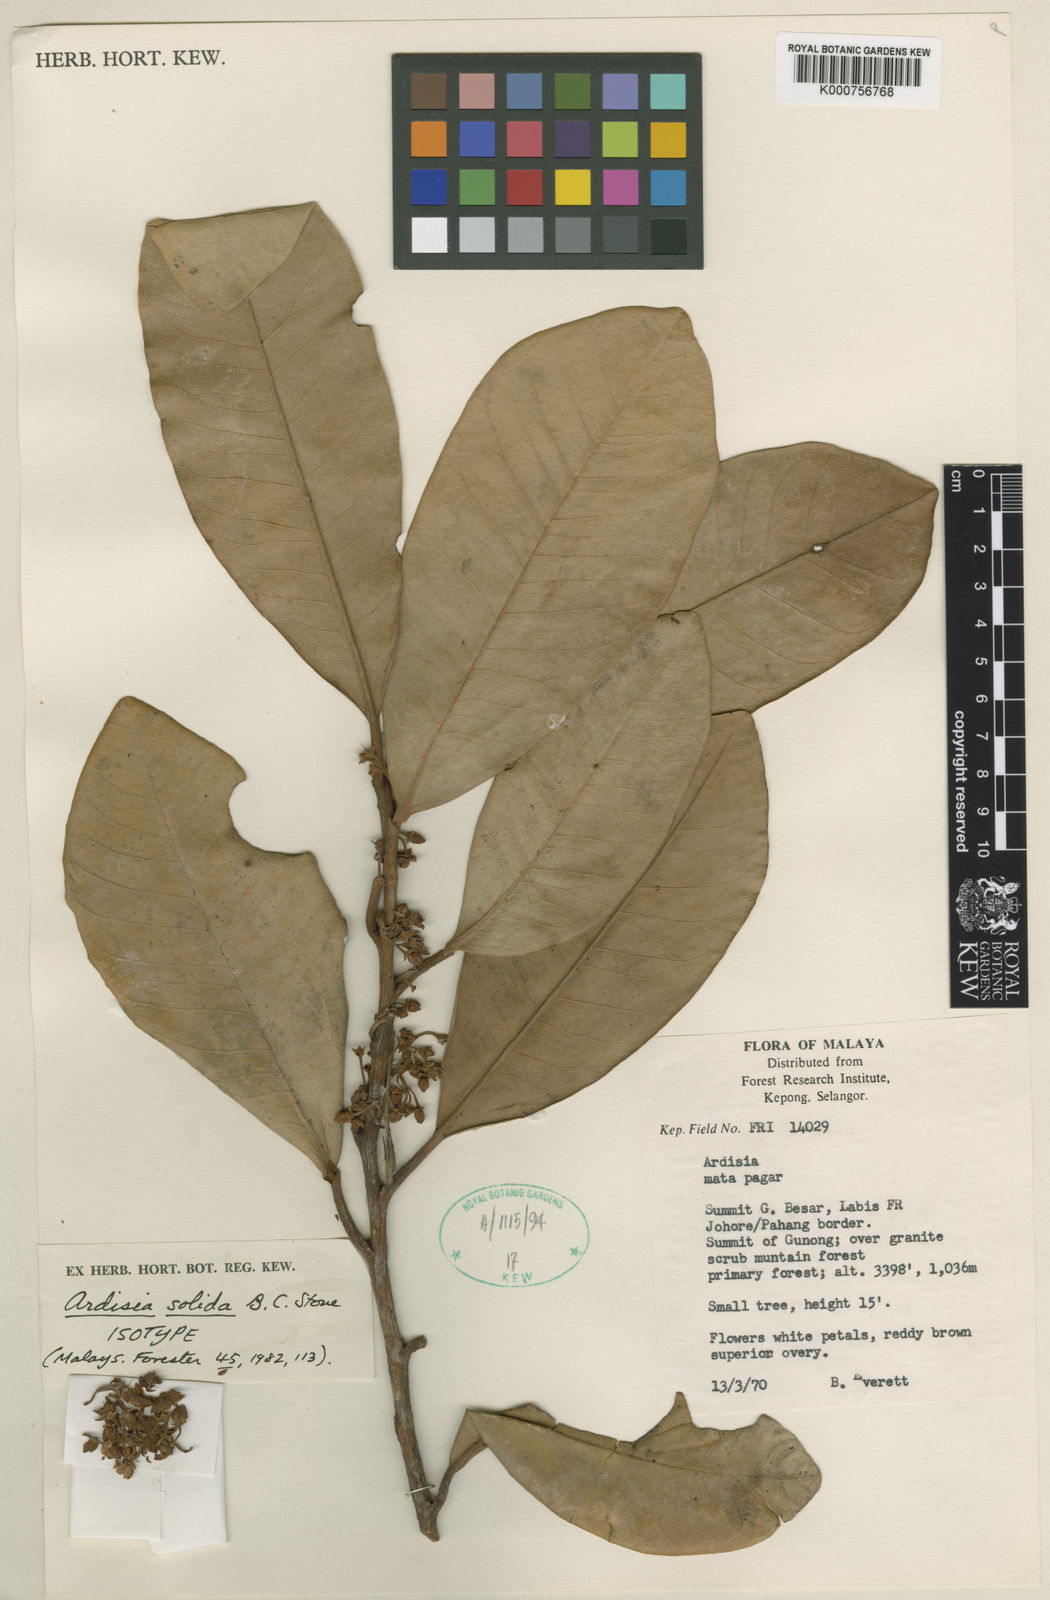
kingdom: Plantae
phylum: Tracheophyta
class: Magnoliopsida
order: Ericales
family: Primulaceae
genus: Ardisia
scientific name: Ardisia solida
